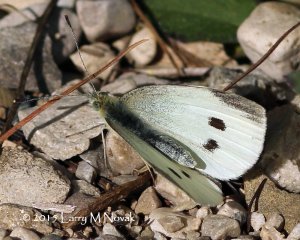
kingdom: Animalia
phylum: Arthropoda
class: Insecta
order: Lepidoptera
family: Pieridae
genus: Pieris
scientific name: Pieris rapae
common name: Cabbage White
